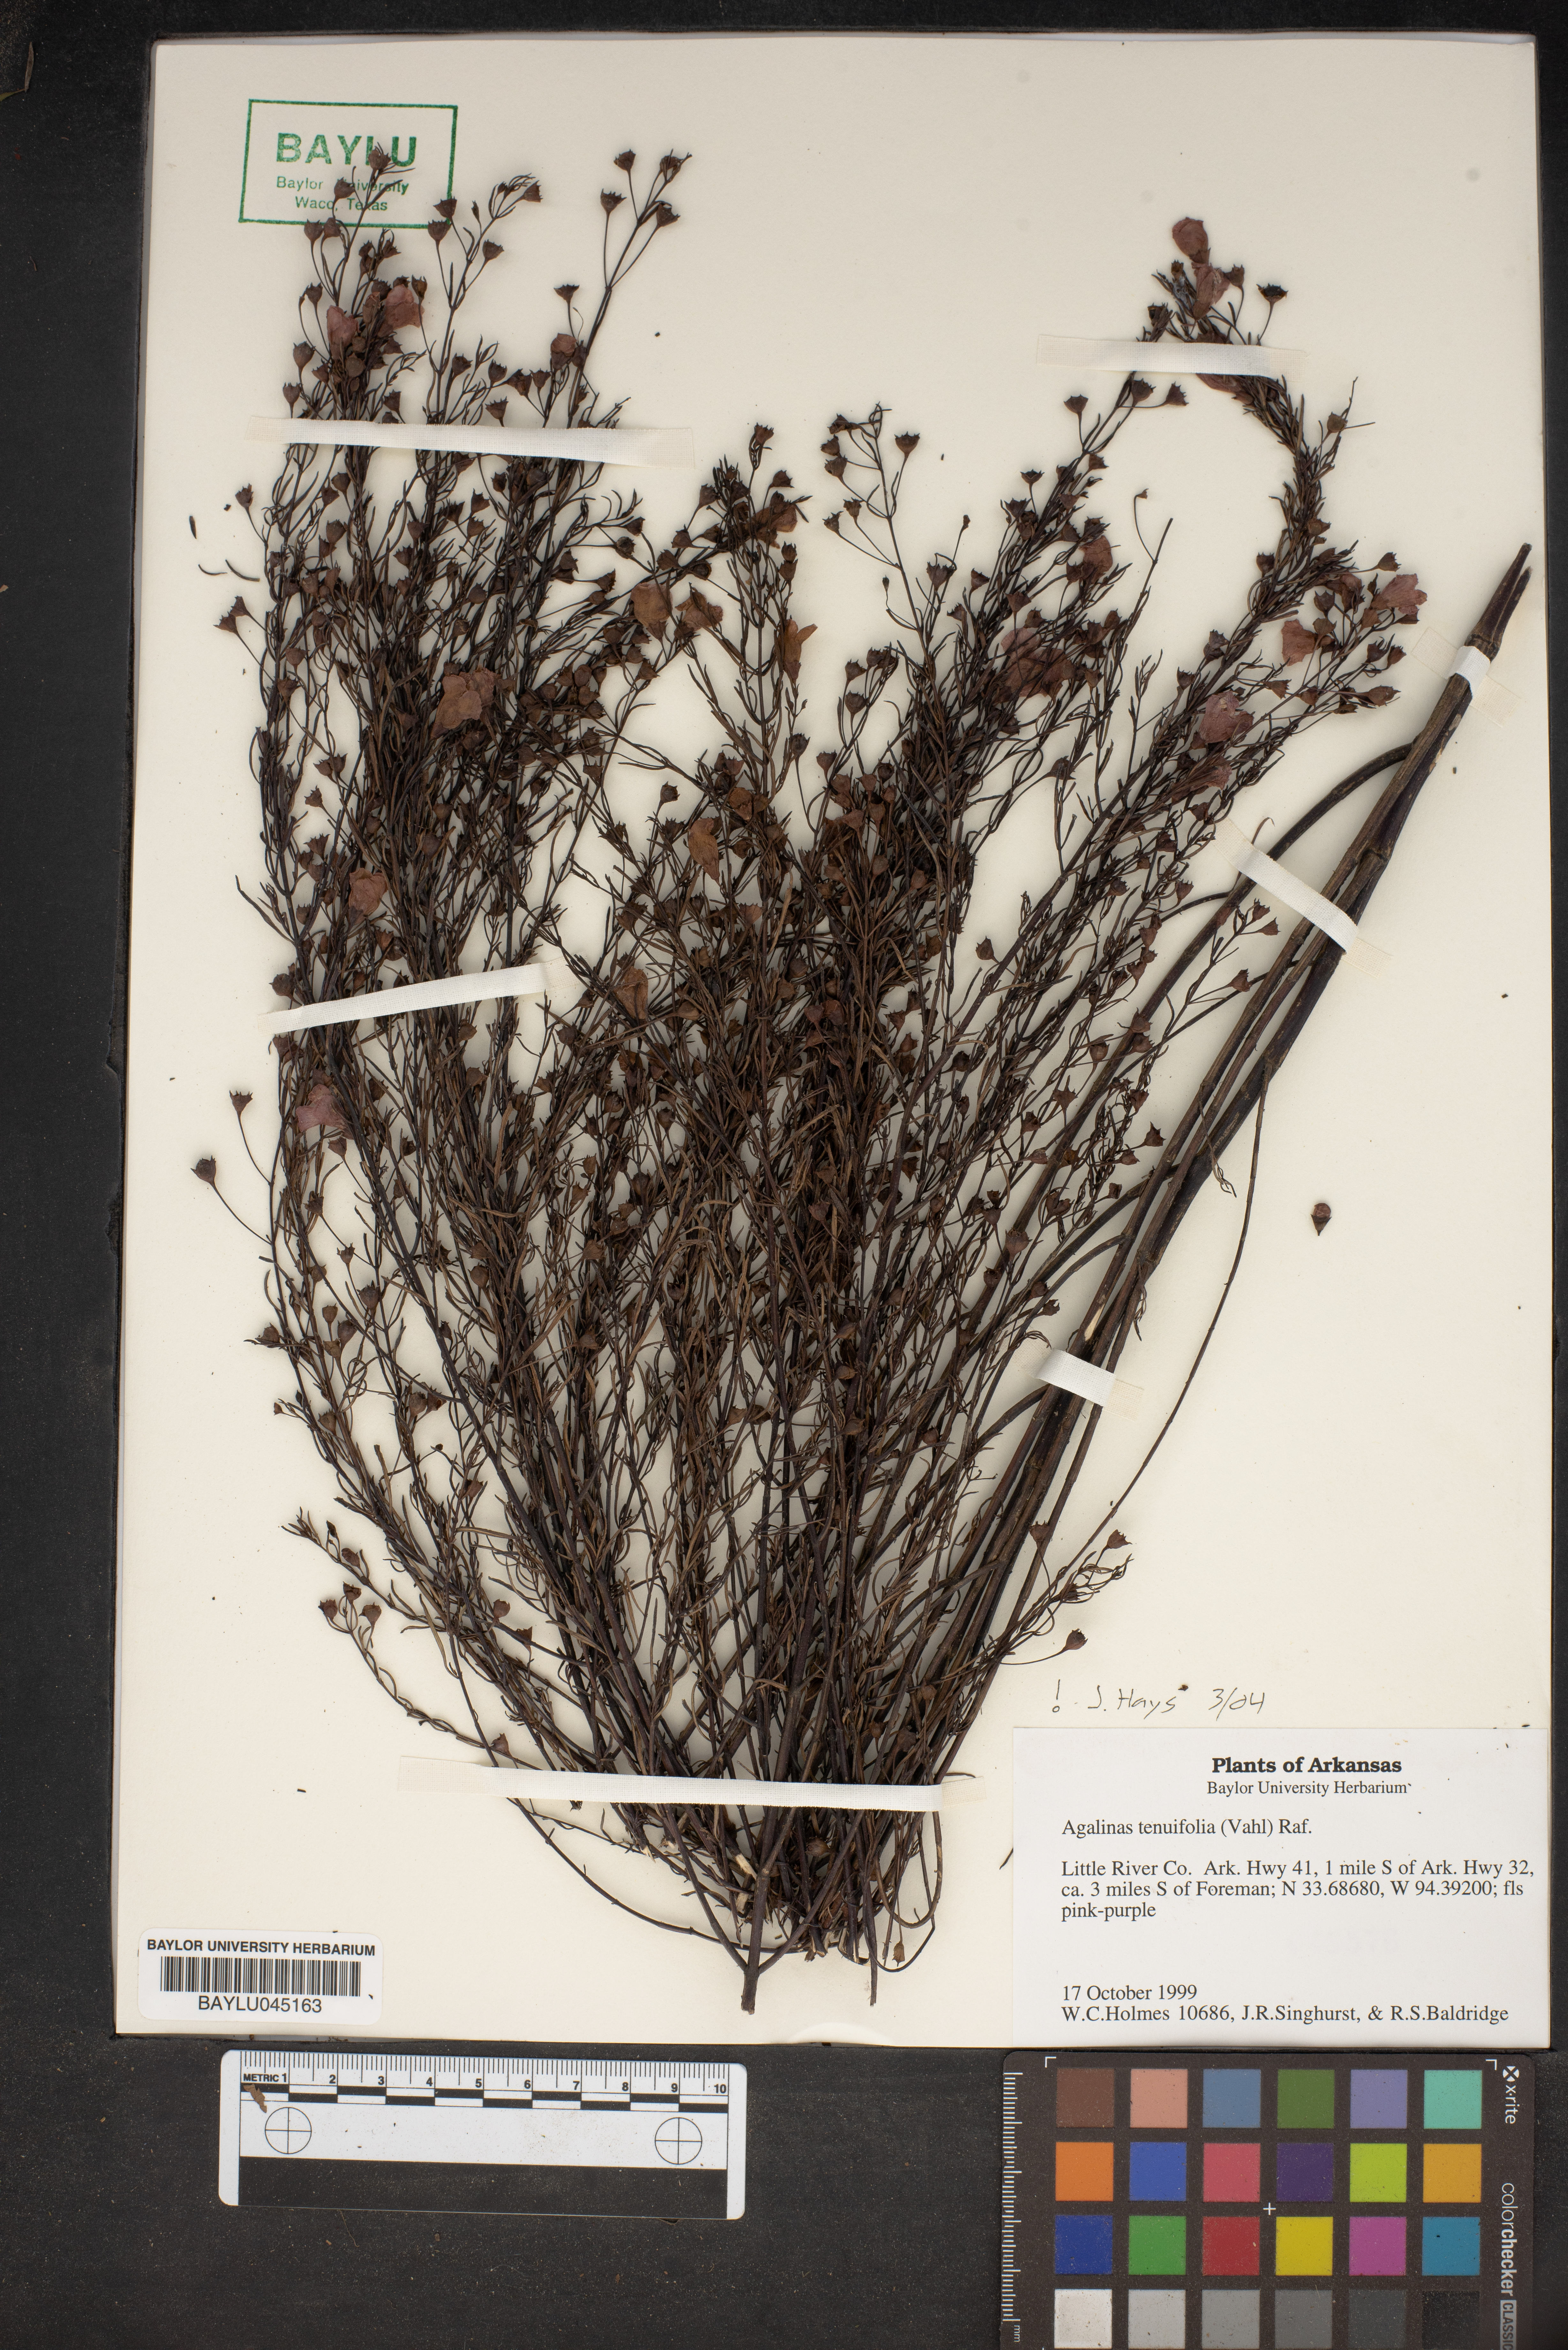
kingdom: Plantae
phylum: Tracheophyta
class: Magnoliopsida
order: Lamiales
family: Orobanchaceae
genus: Agalinis
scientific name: Agalinis tenuifolia
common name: Slender agalinis
